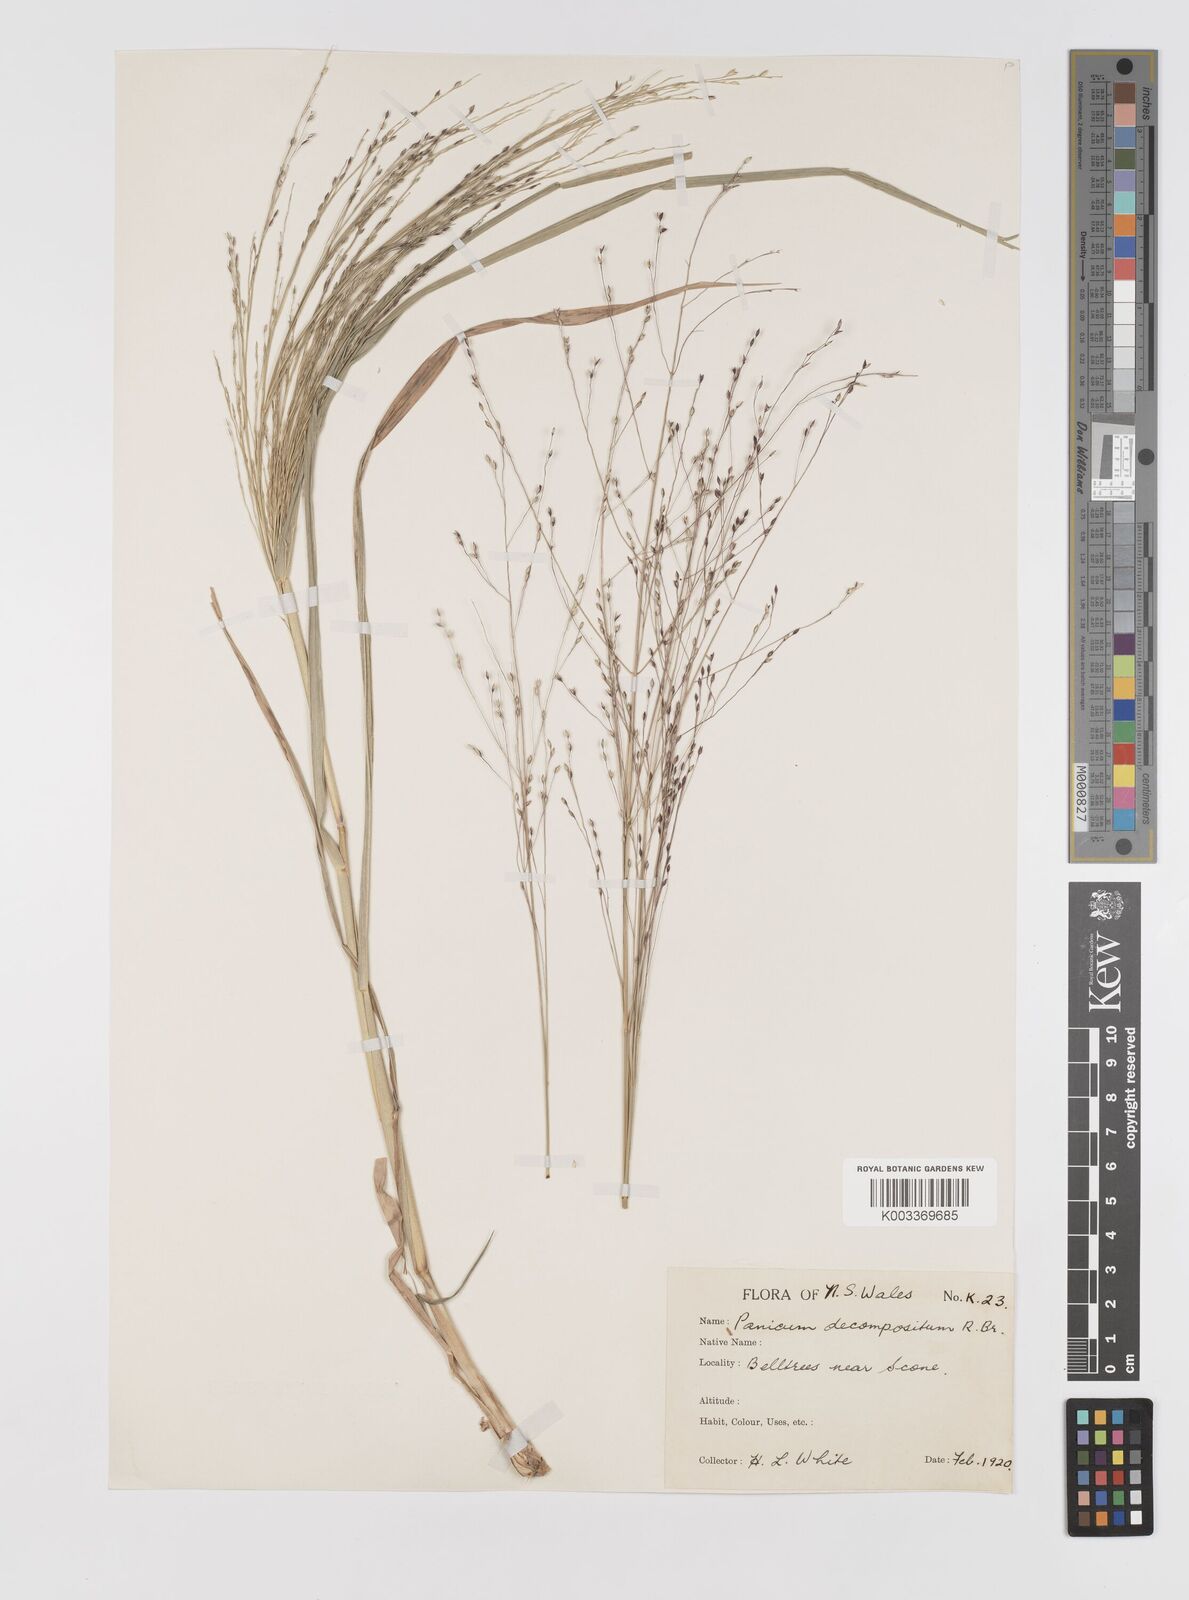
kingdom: Plantae
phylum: Tracheophyta
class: Liliopsida
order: Poales
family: Poaceae
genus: Panicum
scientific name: Panicum decompositum
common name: Australian millet
